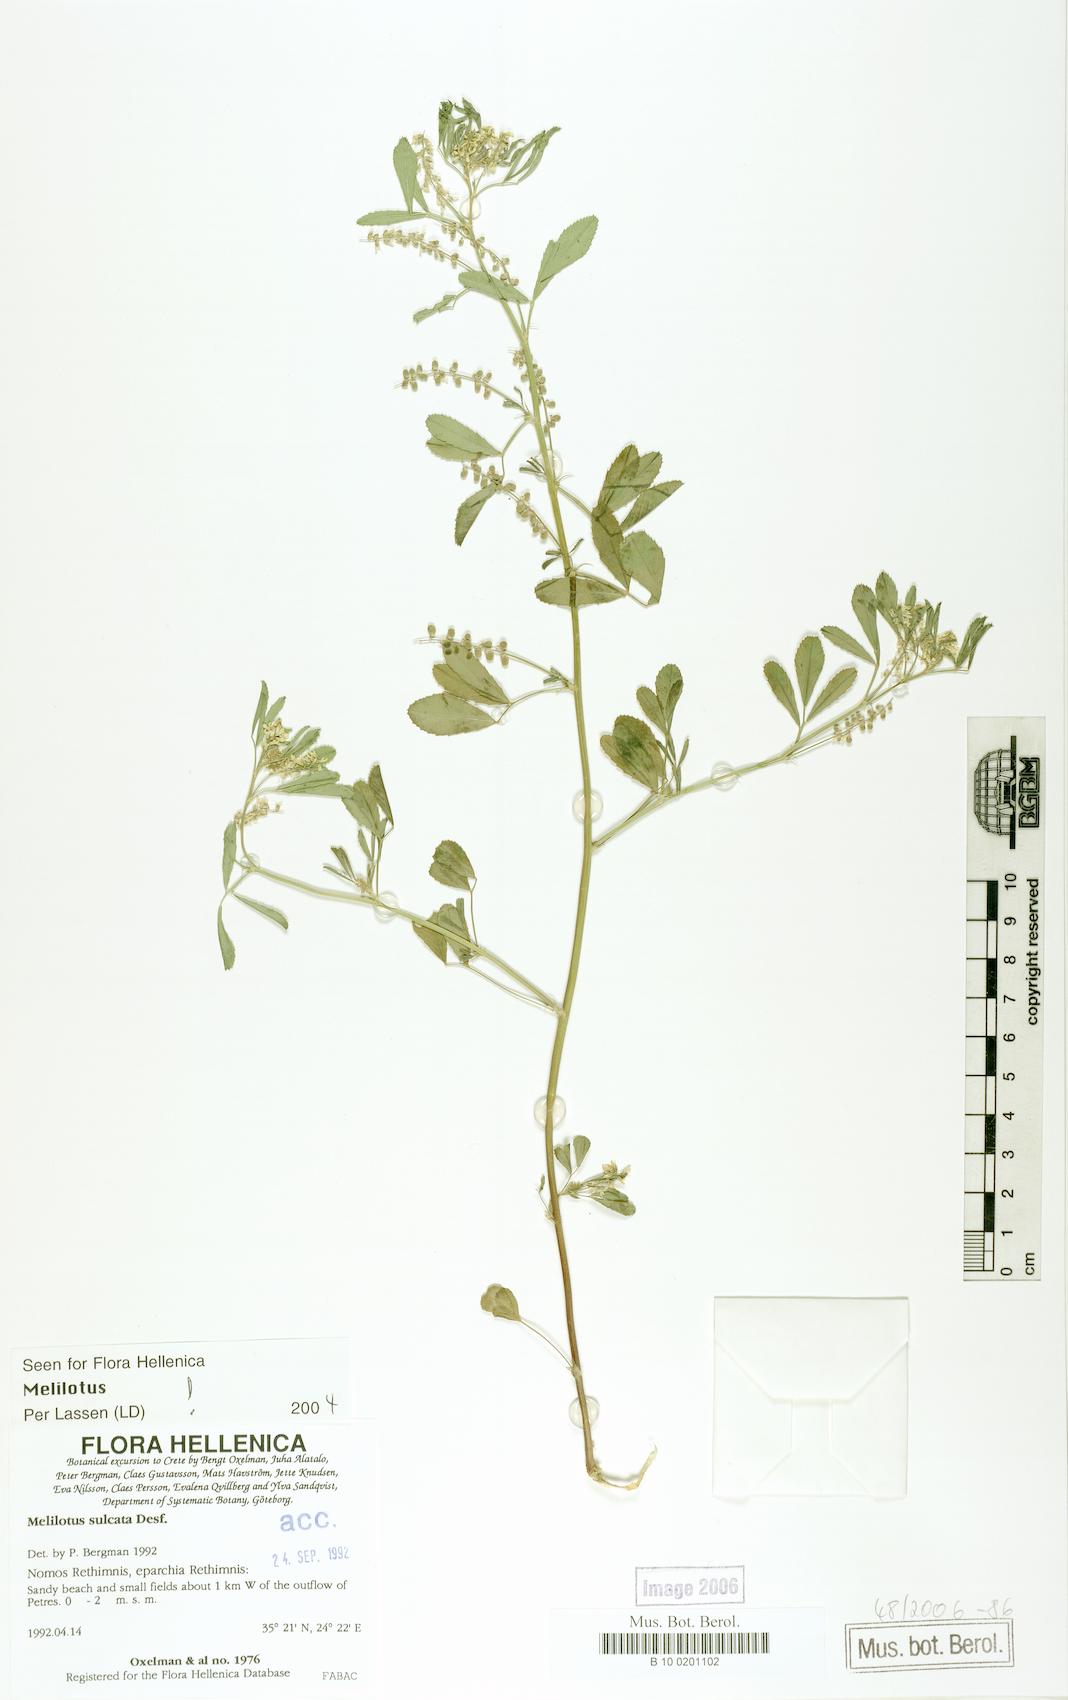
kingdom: Plantae
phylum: Tracheophyta
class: Magnoliopsida
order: Fabales
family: Fabaceae
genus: Melilotus
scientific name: Melilotus sulcatus
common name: Furrowed melilot
